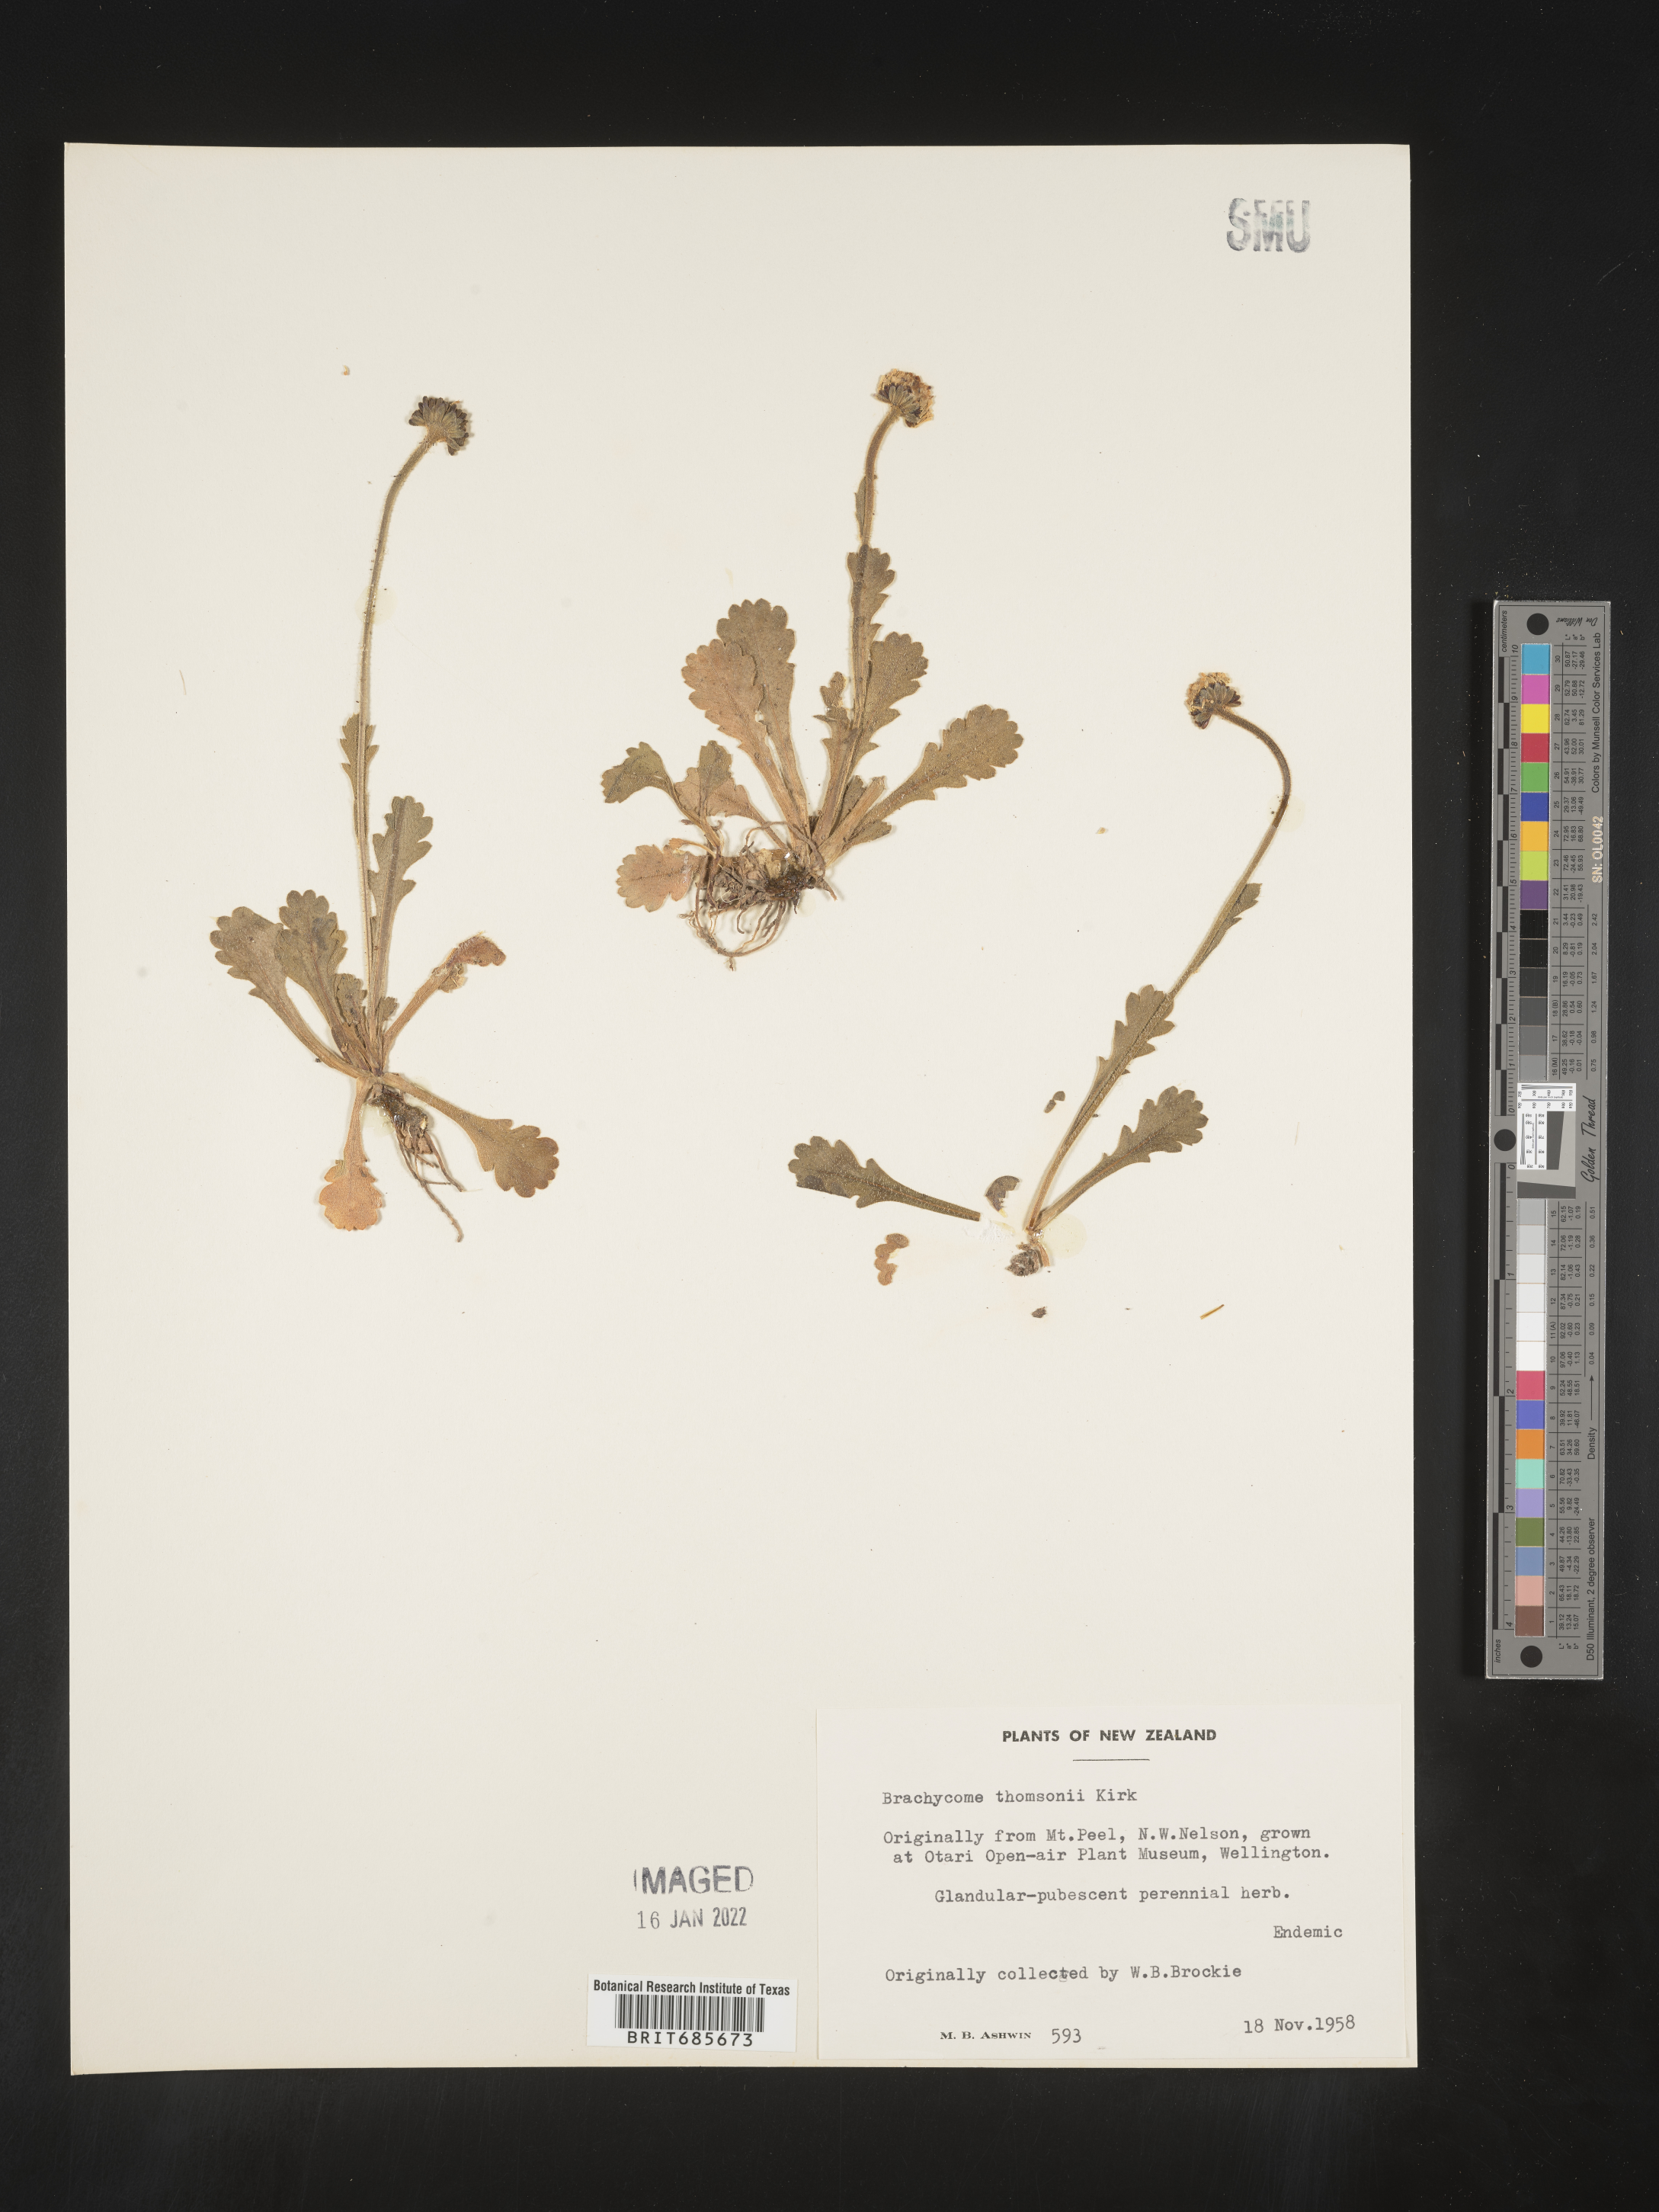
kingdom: Plantae
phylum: Tracheophyta
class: Magnoliopsida
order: Asterales
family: Asteraceae
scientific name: Asteraceae
